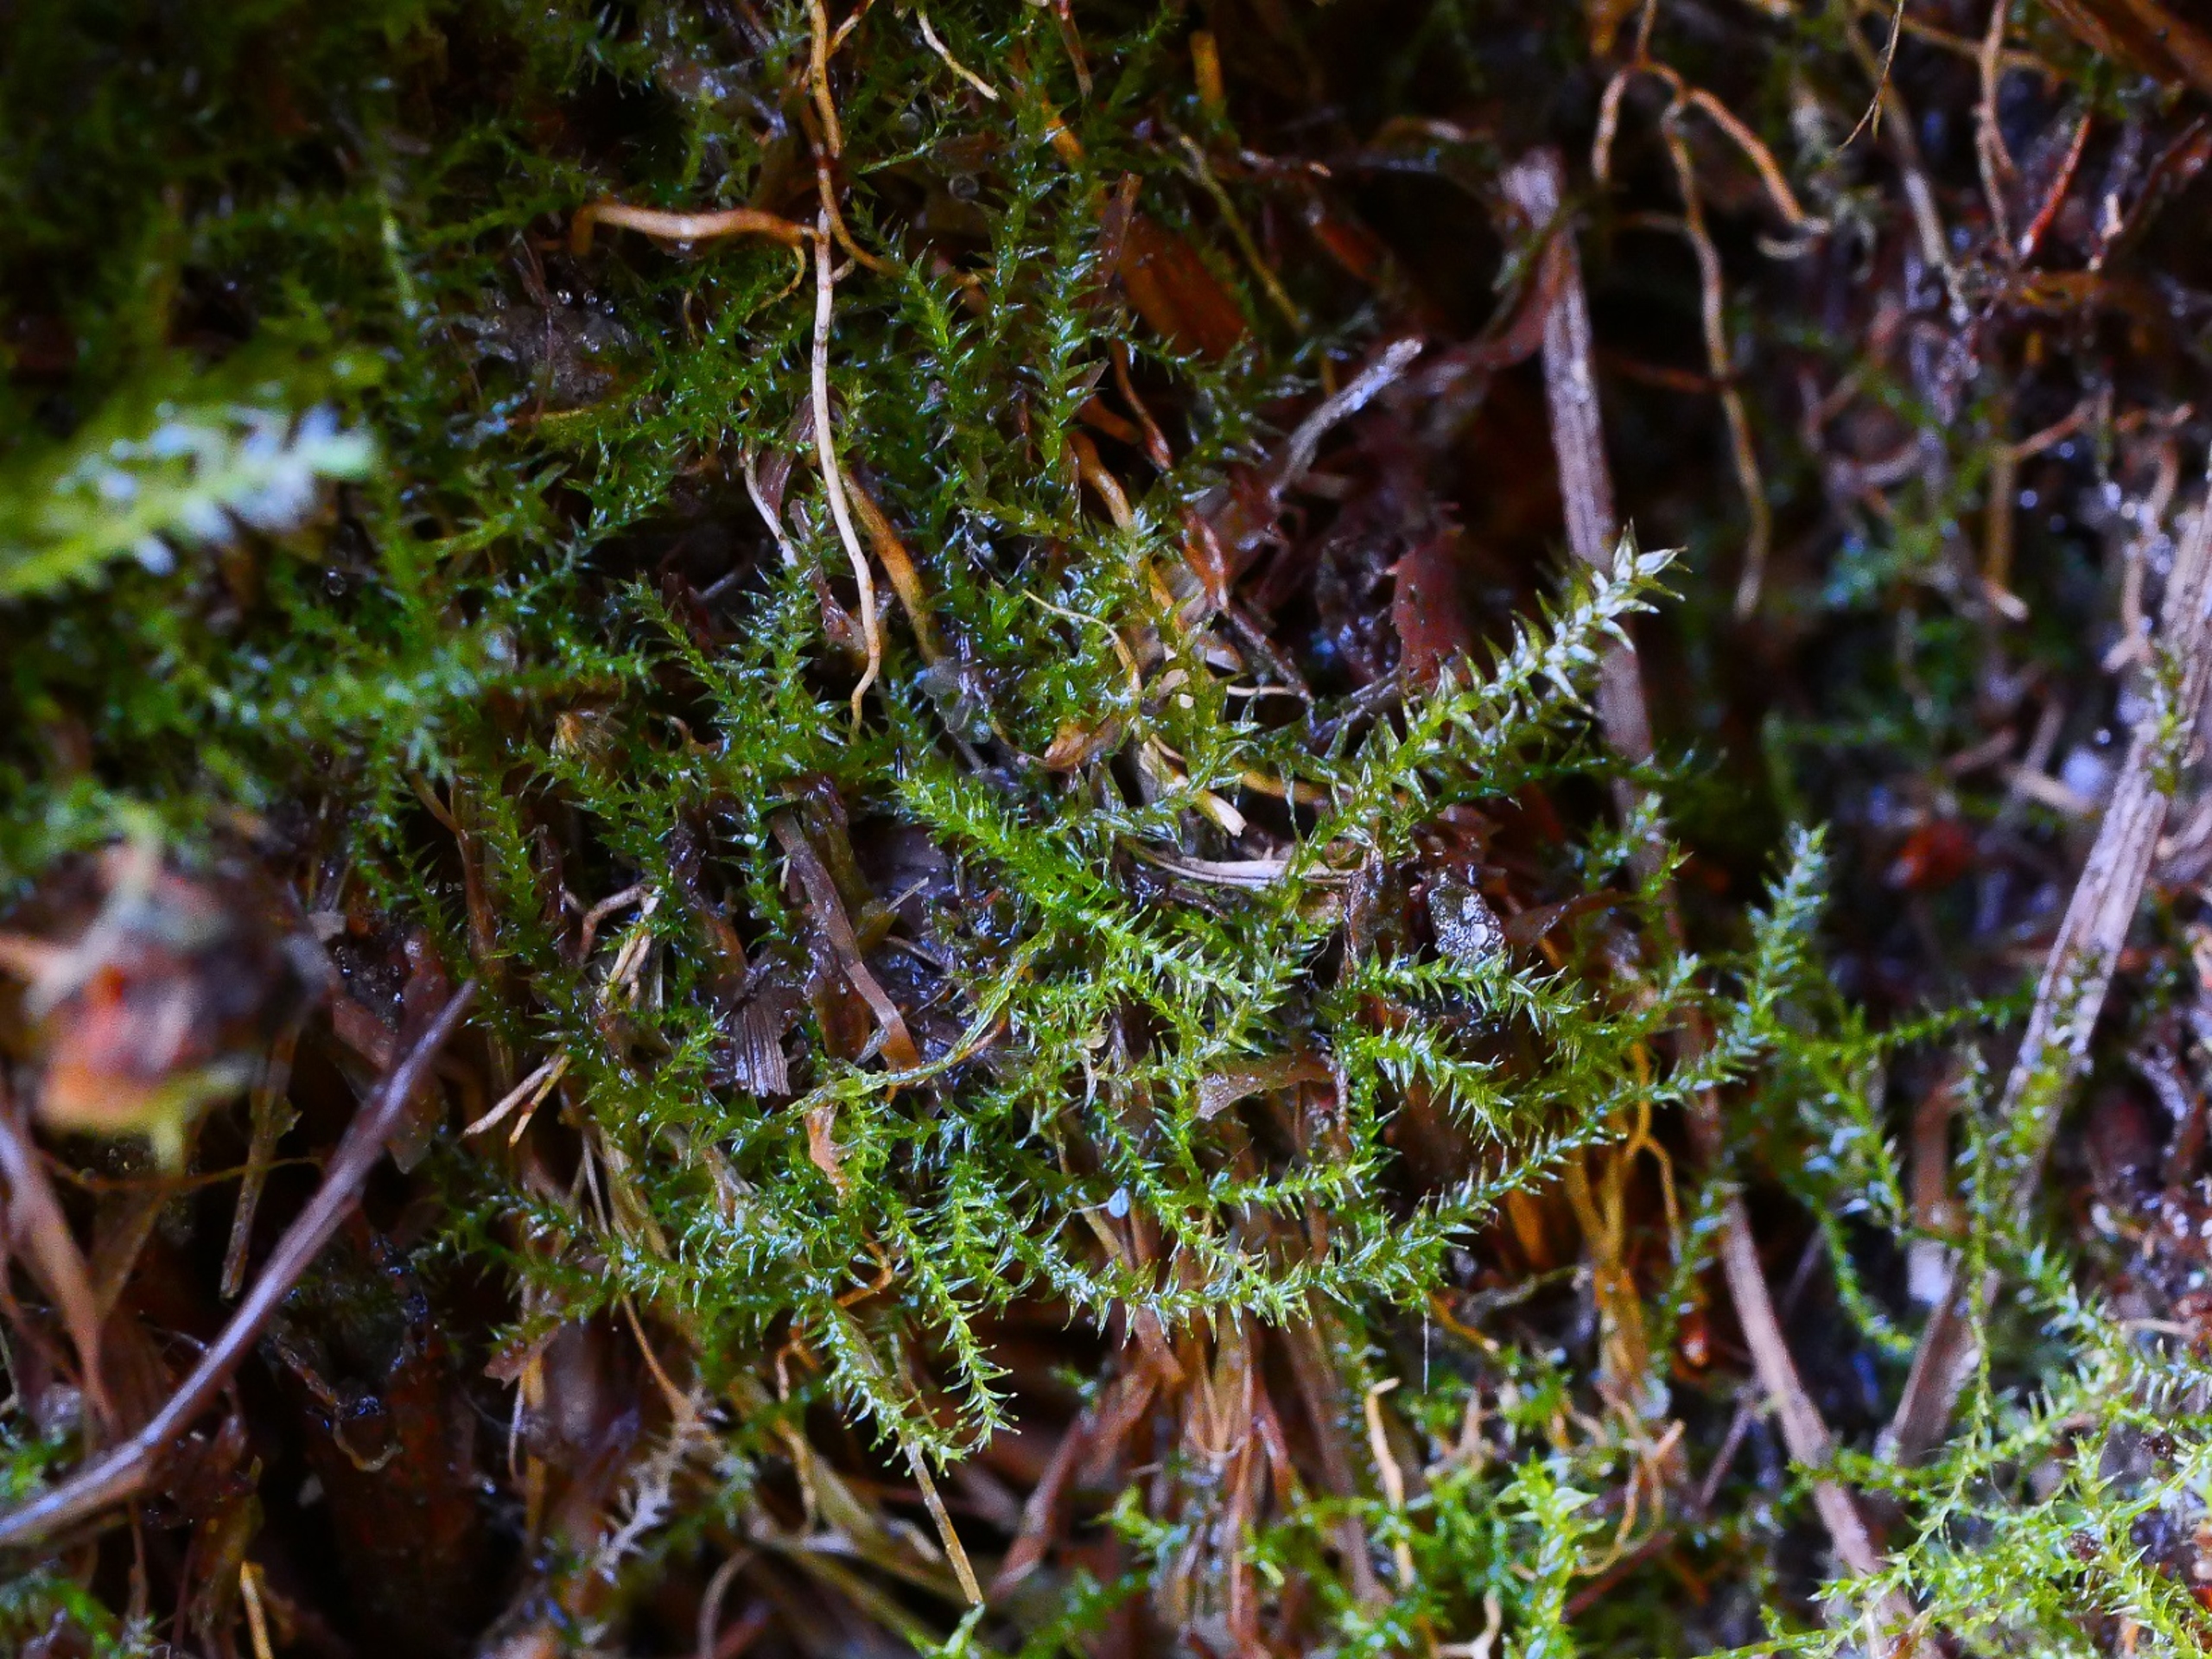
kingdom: Plantae
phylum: Bryophyta
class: Bryopsida
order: Hypnales
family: Plagiotheciaceae
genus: Plagiothecium
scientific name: Plagiothecium latebricola
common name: Spinkel tæppemos
